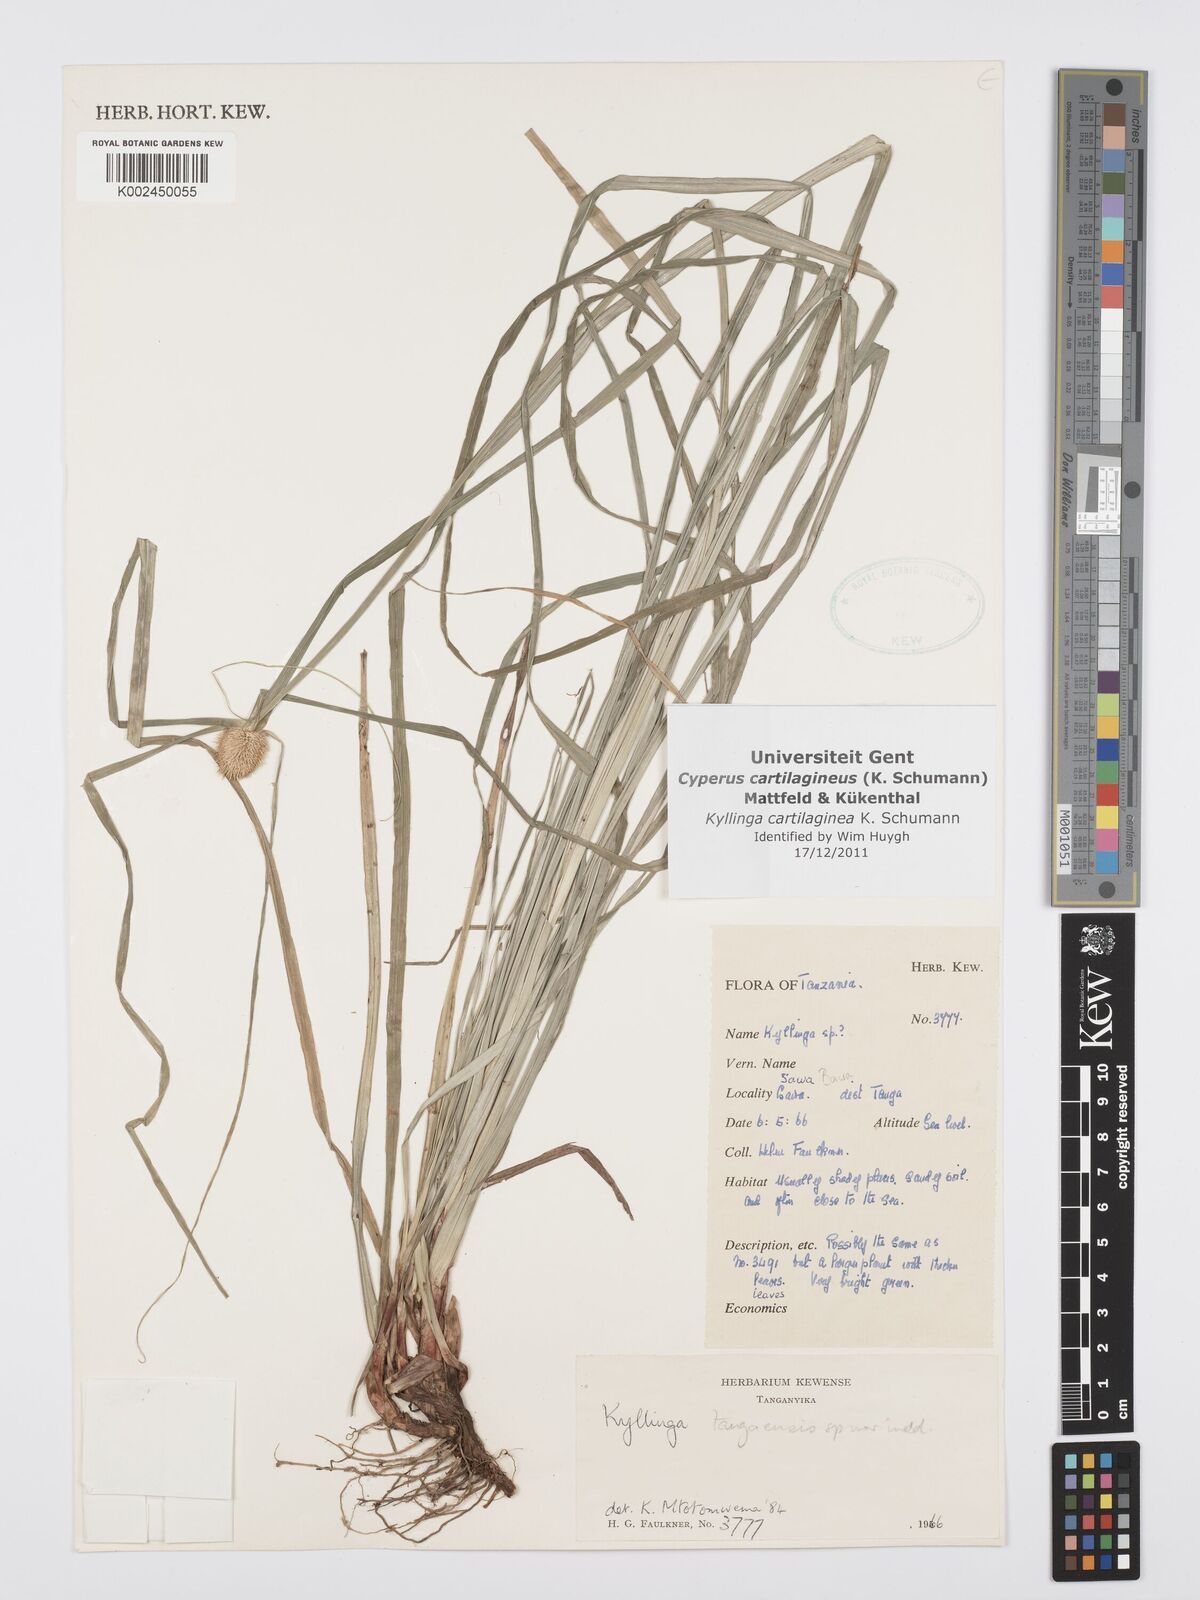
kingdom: Plantae
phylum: Tracheophyta
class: Liliopsida
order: Poales
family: Cyperaceae
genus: Cyperus
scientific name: Cyperus cartilagineus
